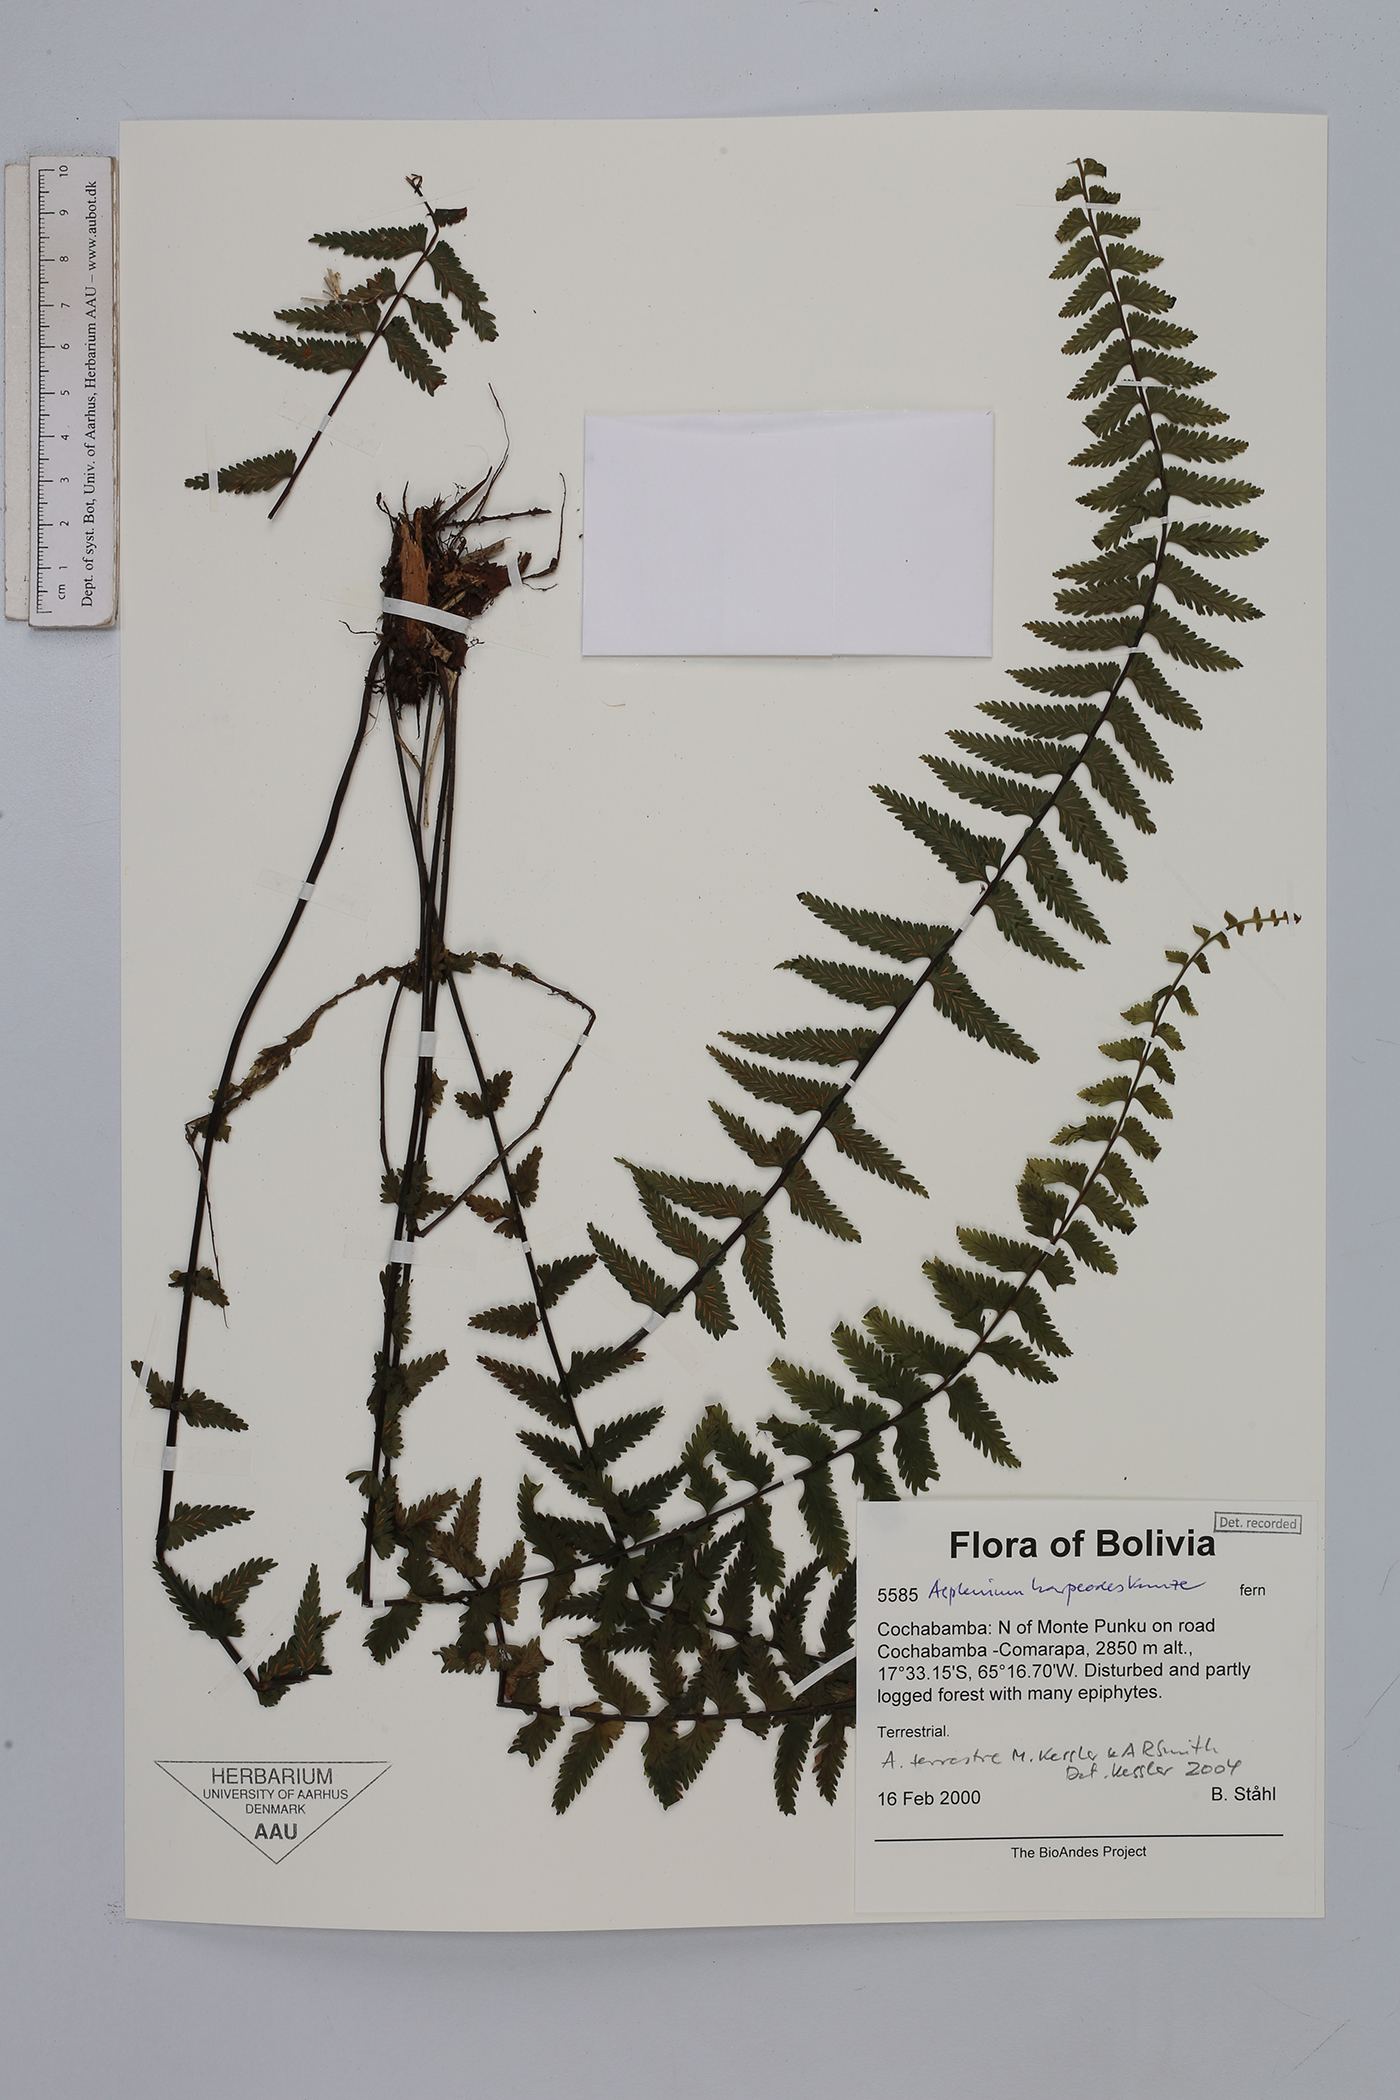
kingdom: Plantae
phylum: Tracheophyta
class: Polypodiopsida
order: Polypodiales
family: Aspleniaceae
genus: Asplenium
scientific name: Asplenium harpeodes
